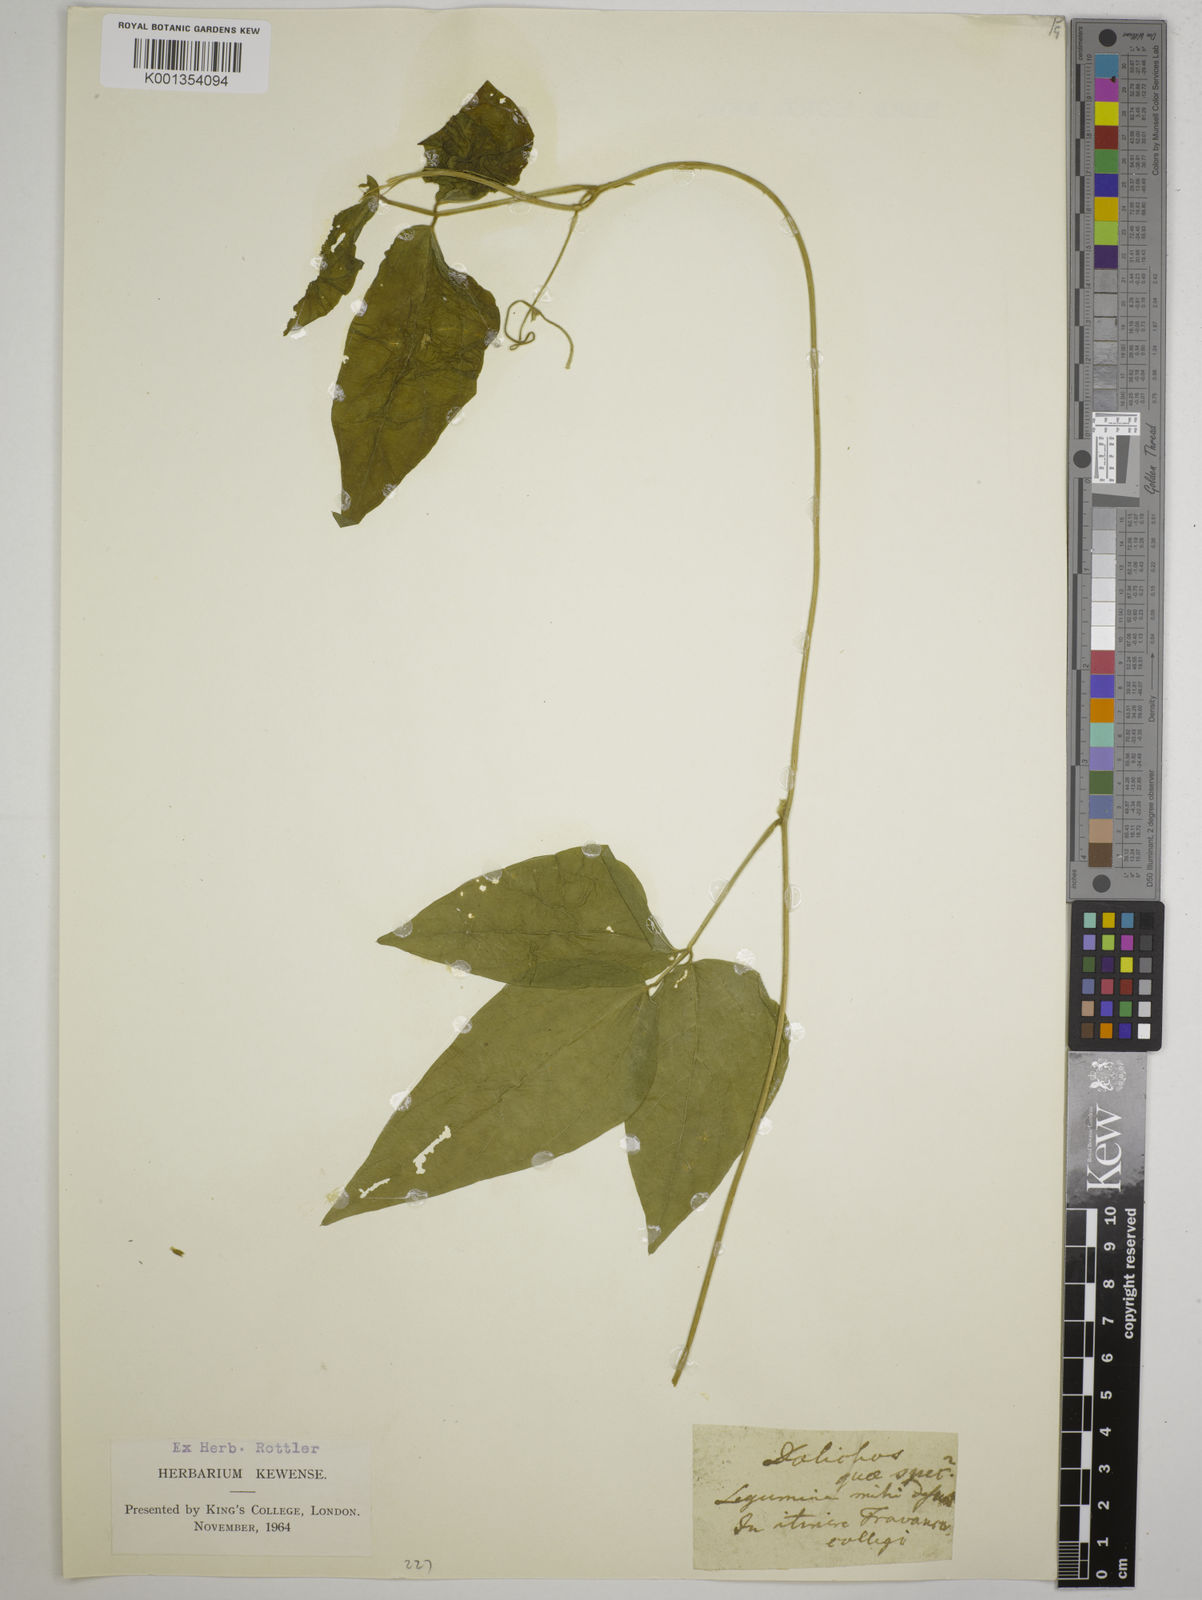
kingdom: Plantae
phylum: Tracheophyta
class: Magnoliopsida
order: Fabales
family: Fabaceae
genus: Dolichos
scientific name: Dolichos
